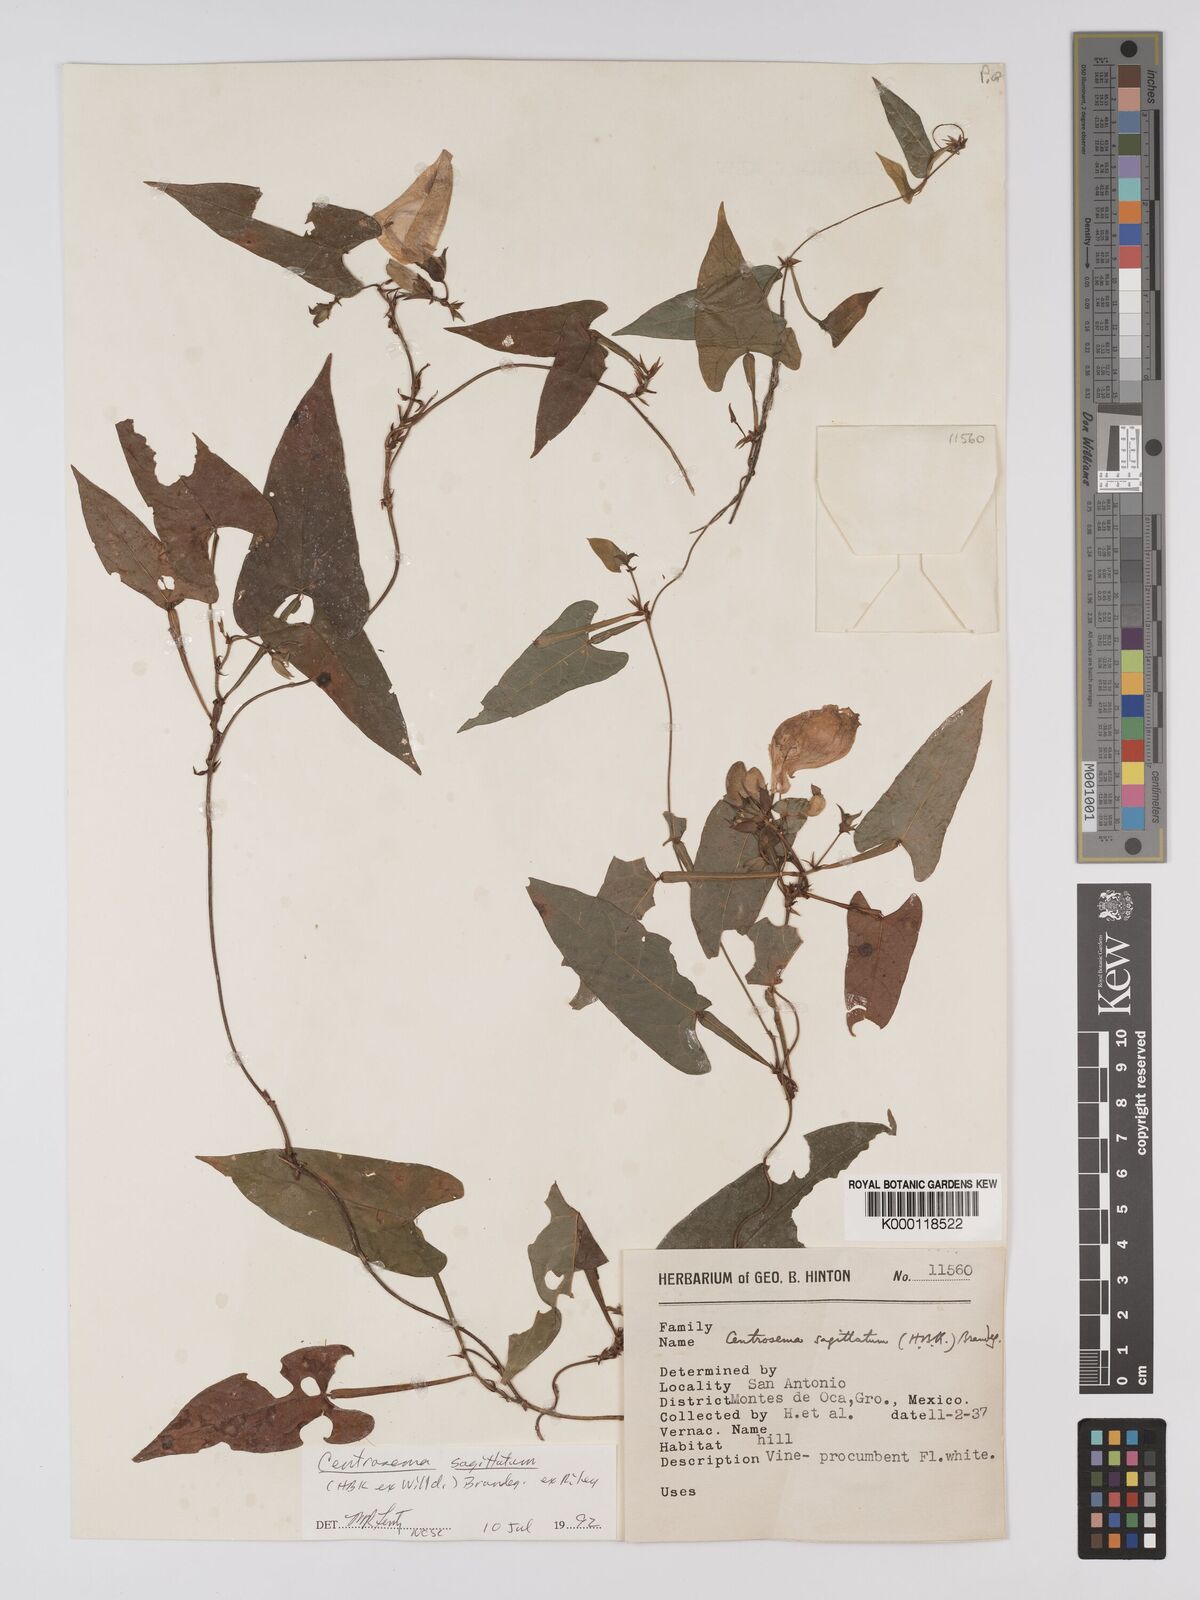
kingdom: Plantae
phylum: Tracheophyta
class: Magnoliopsida
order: Fabales
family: Fabaceae
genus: Centrosema
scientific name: Centrosema sagittatum
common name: Arrowleaf butterfly pea
